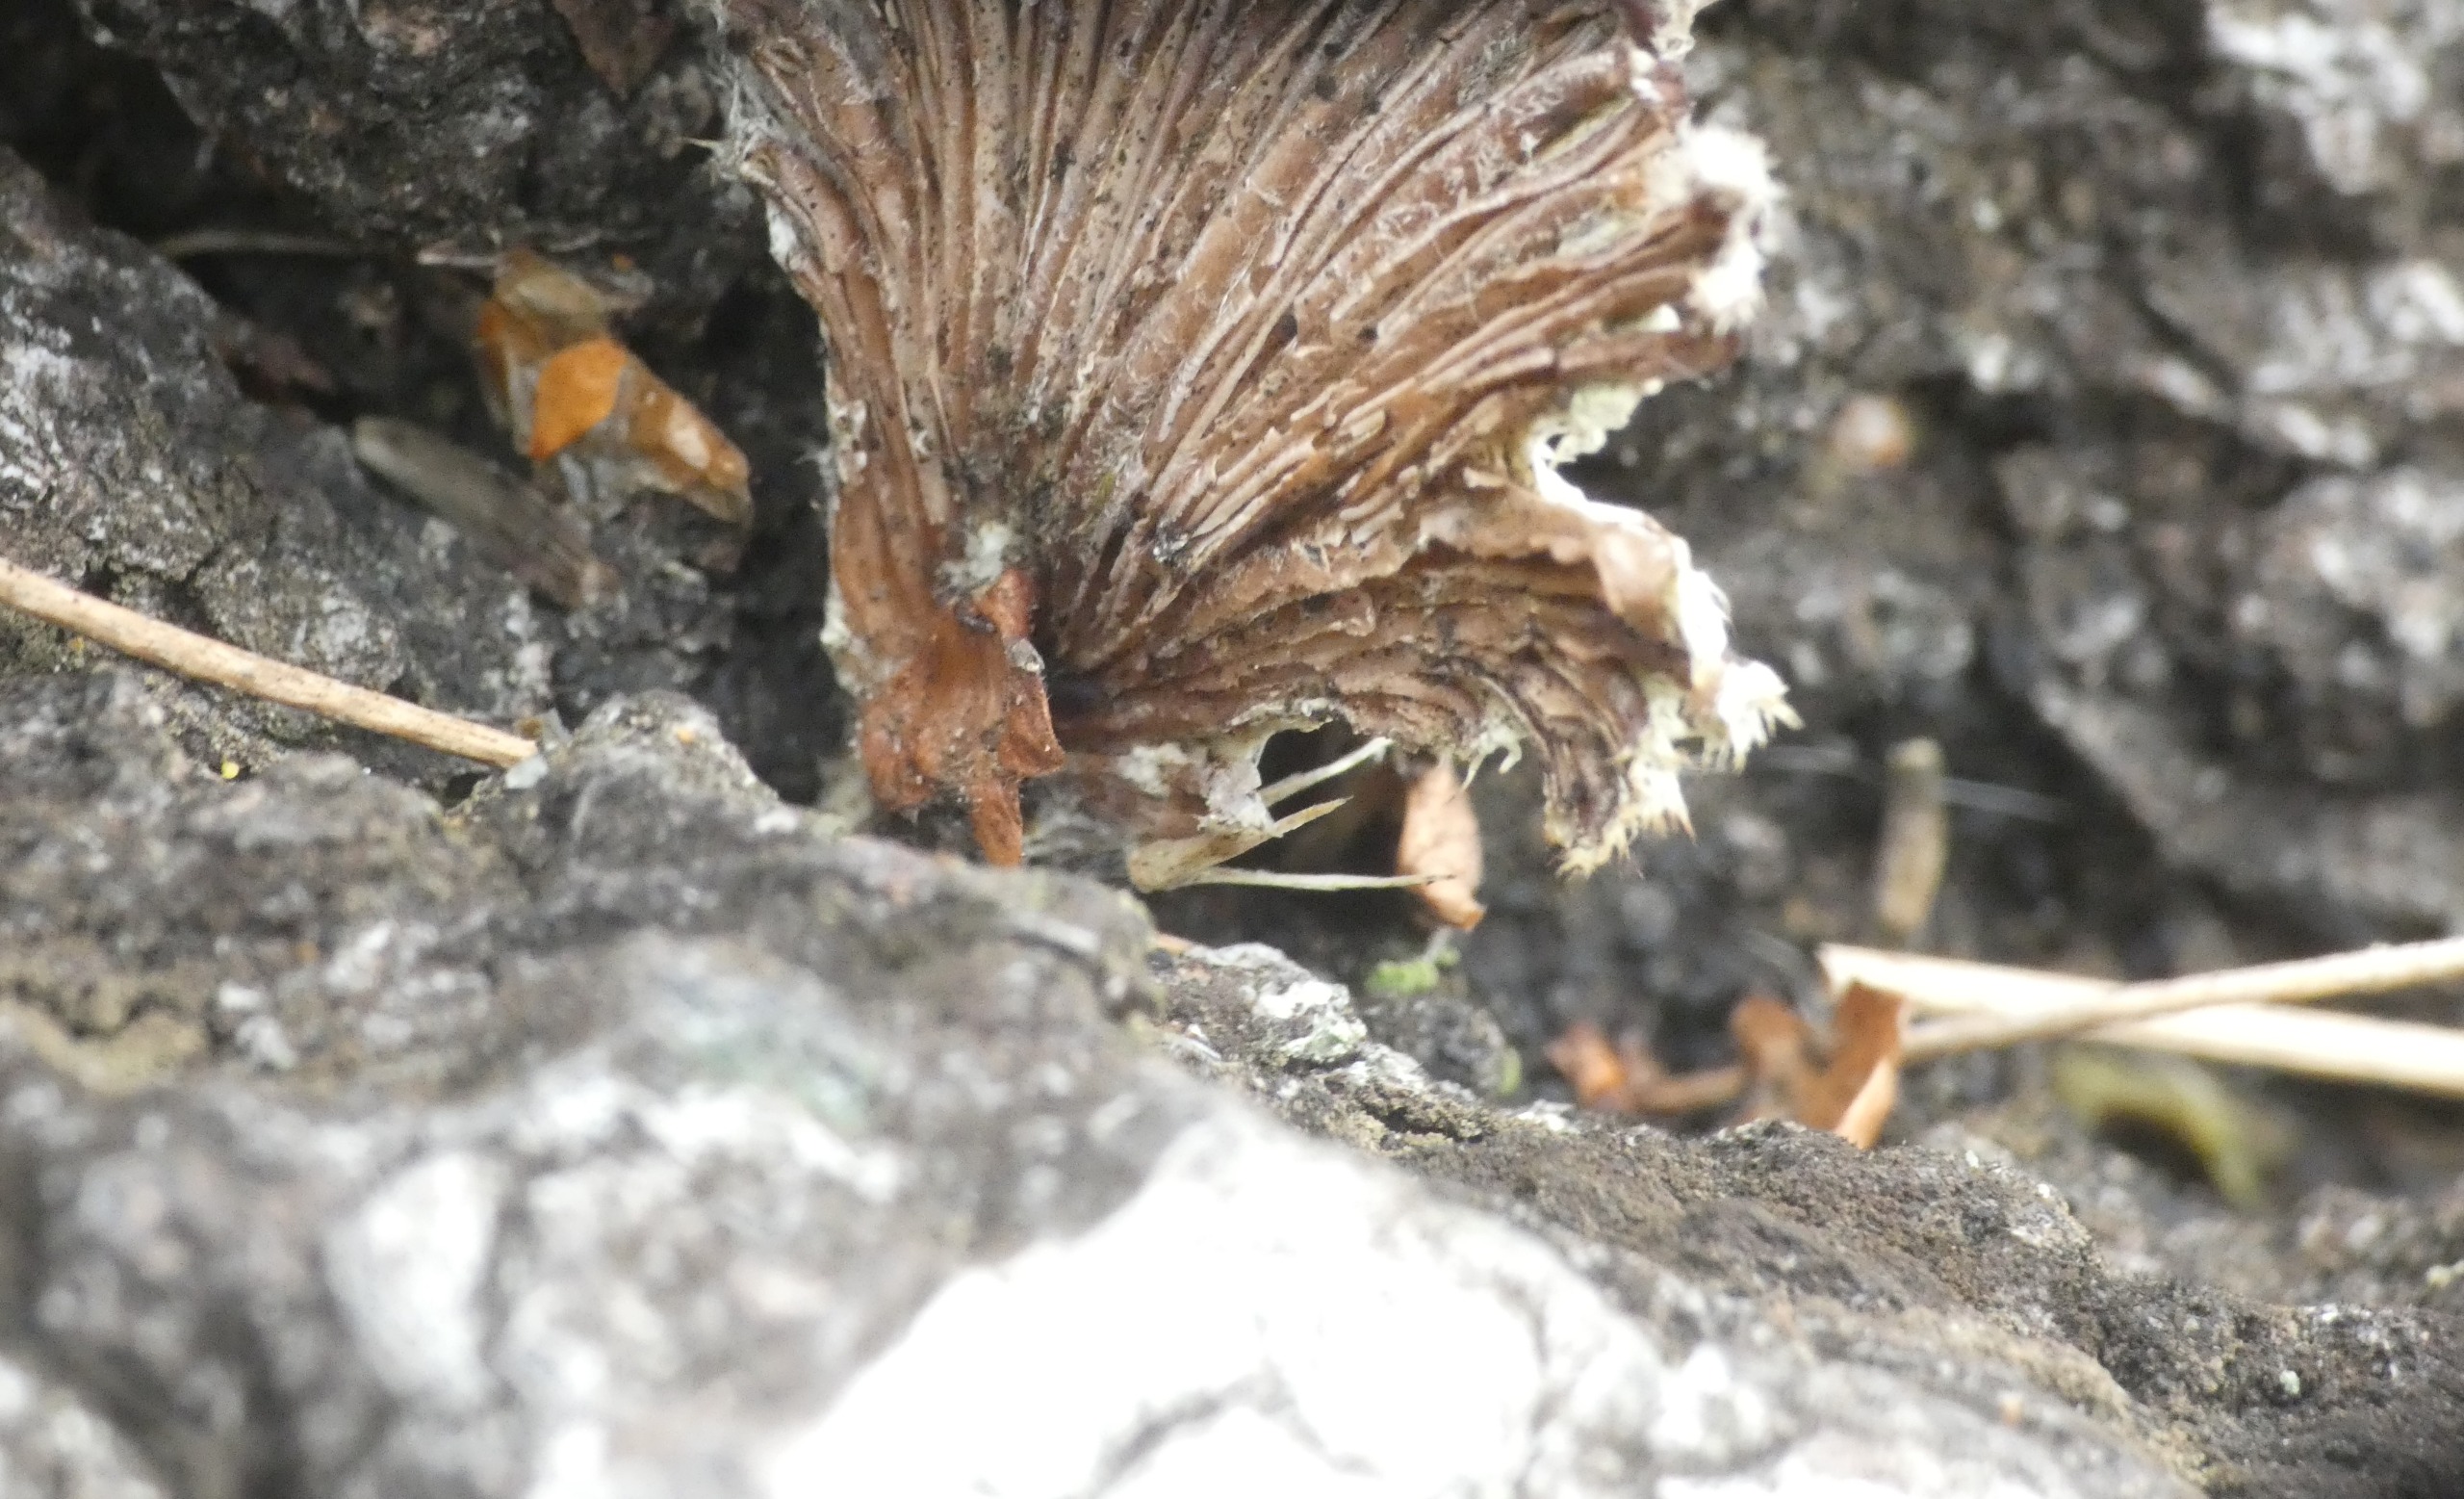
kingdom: Fungi
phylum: Basidiomycota
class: Agaricomycetes
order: Agaricales
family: Schizophyllaceae
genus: Schizophyllum
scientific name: Schizophyllum commune
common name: Kløvblad
